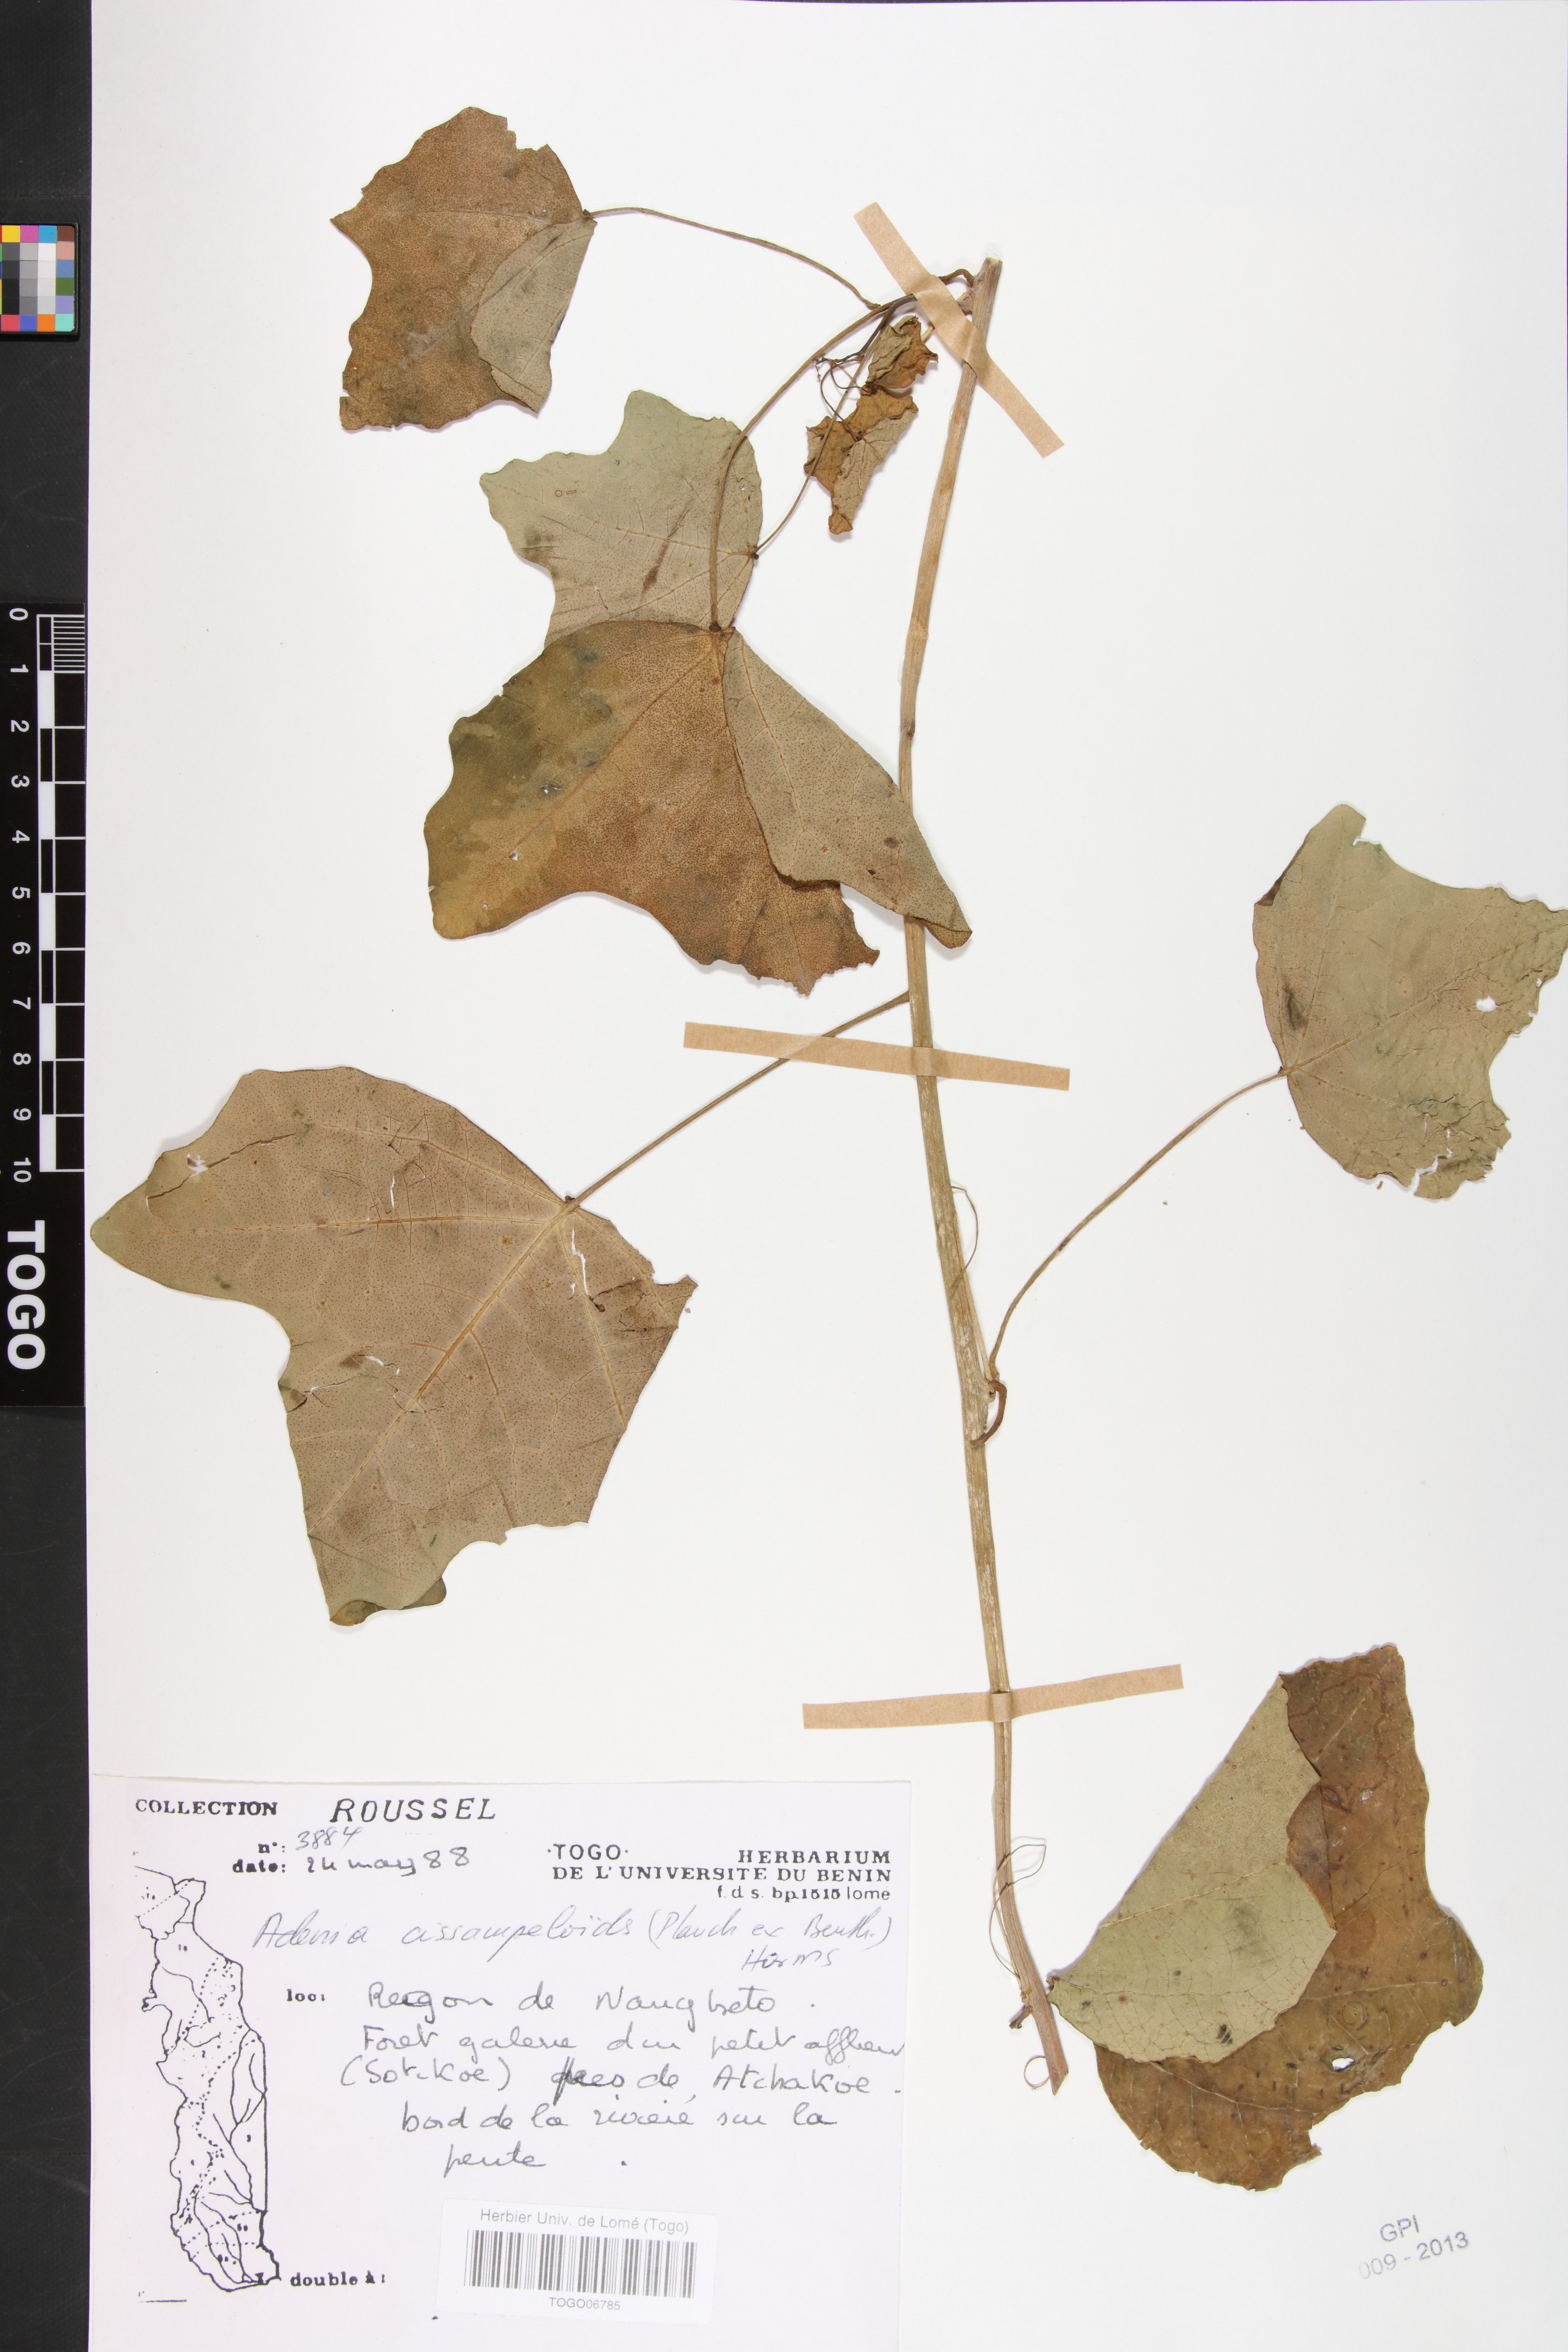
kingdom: Plantae
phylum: Tracheophyta
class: Magnoliopsida
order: Malpighiales
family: Passifloraceae
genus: Adenia
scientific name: Adenia cissampeloides
